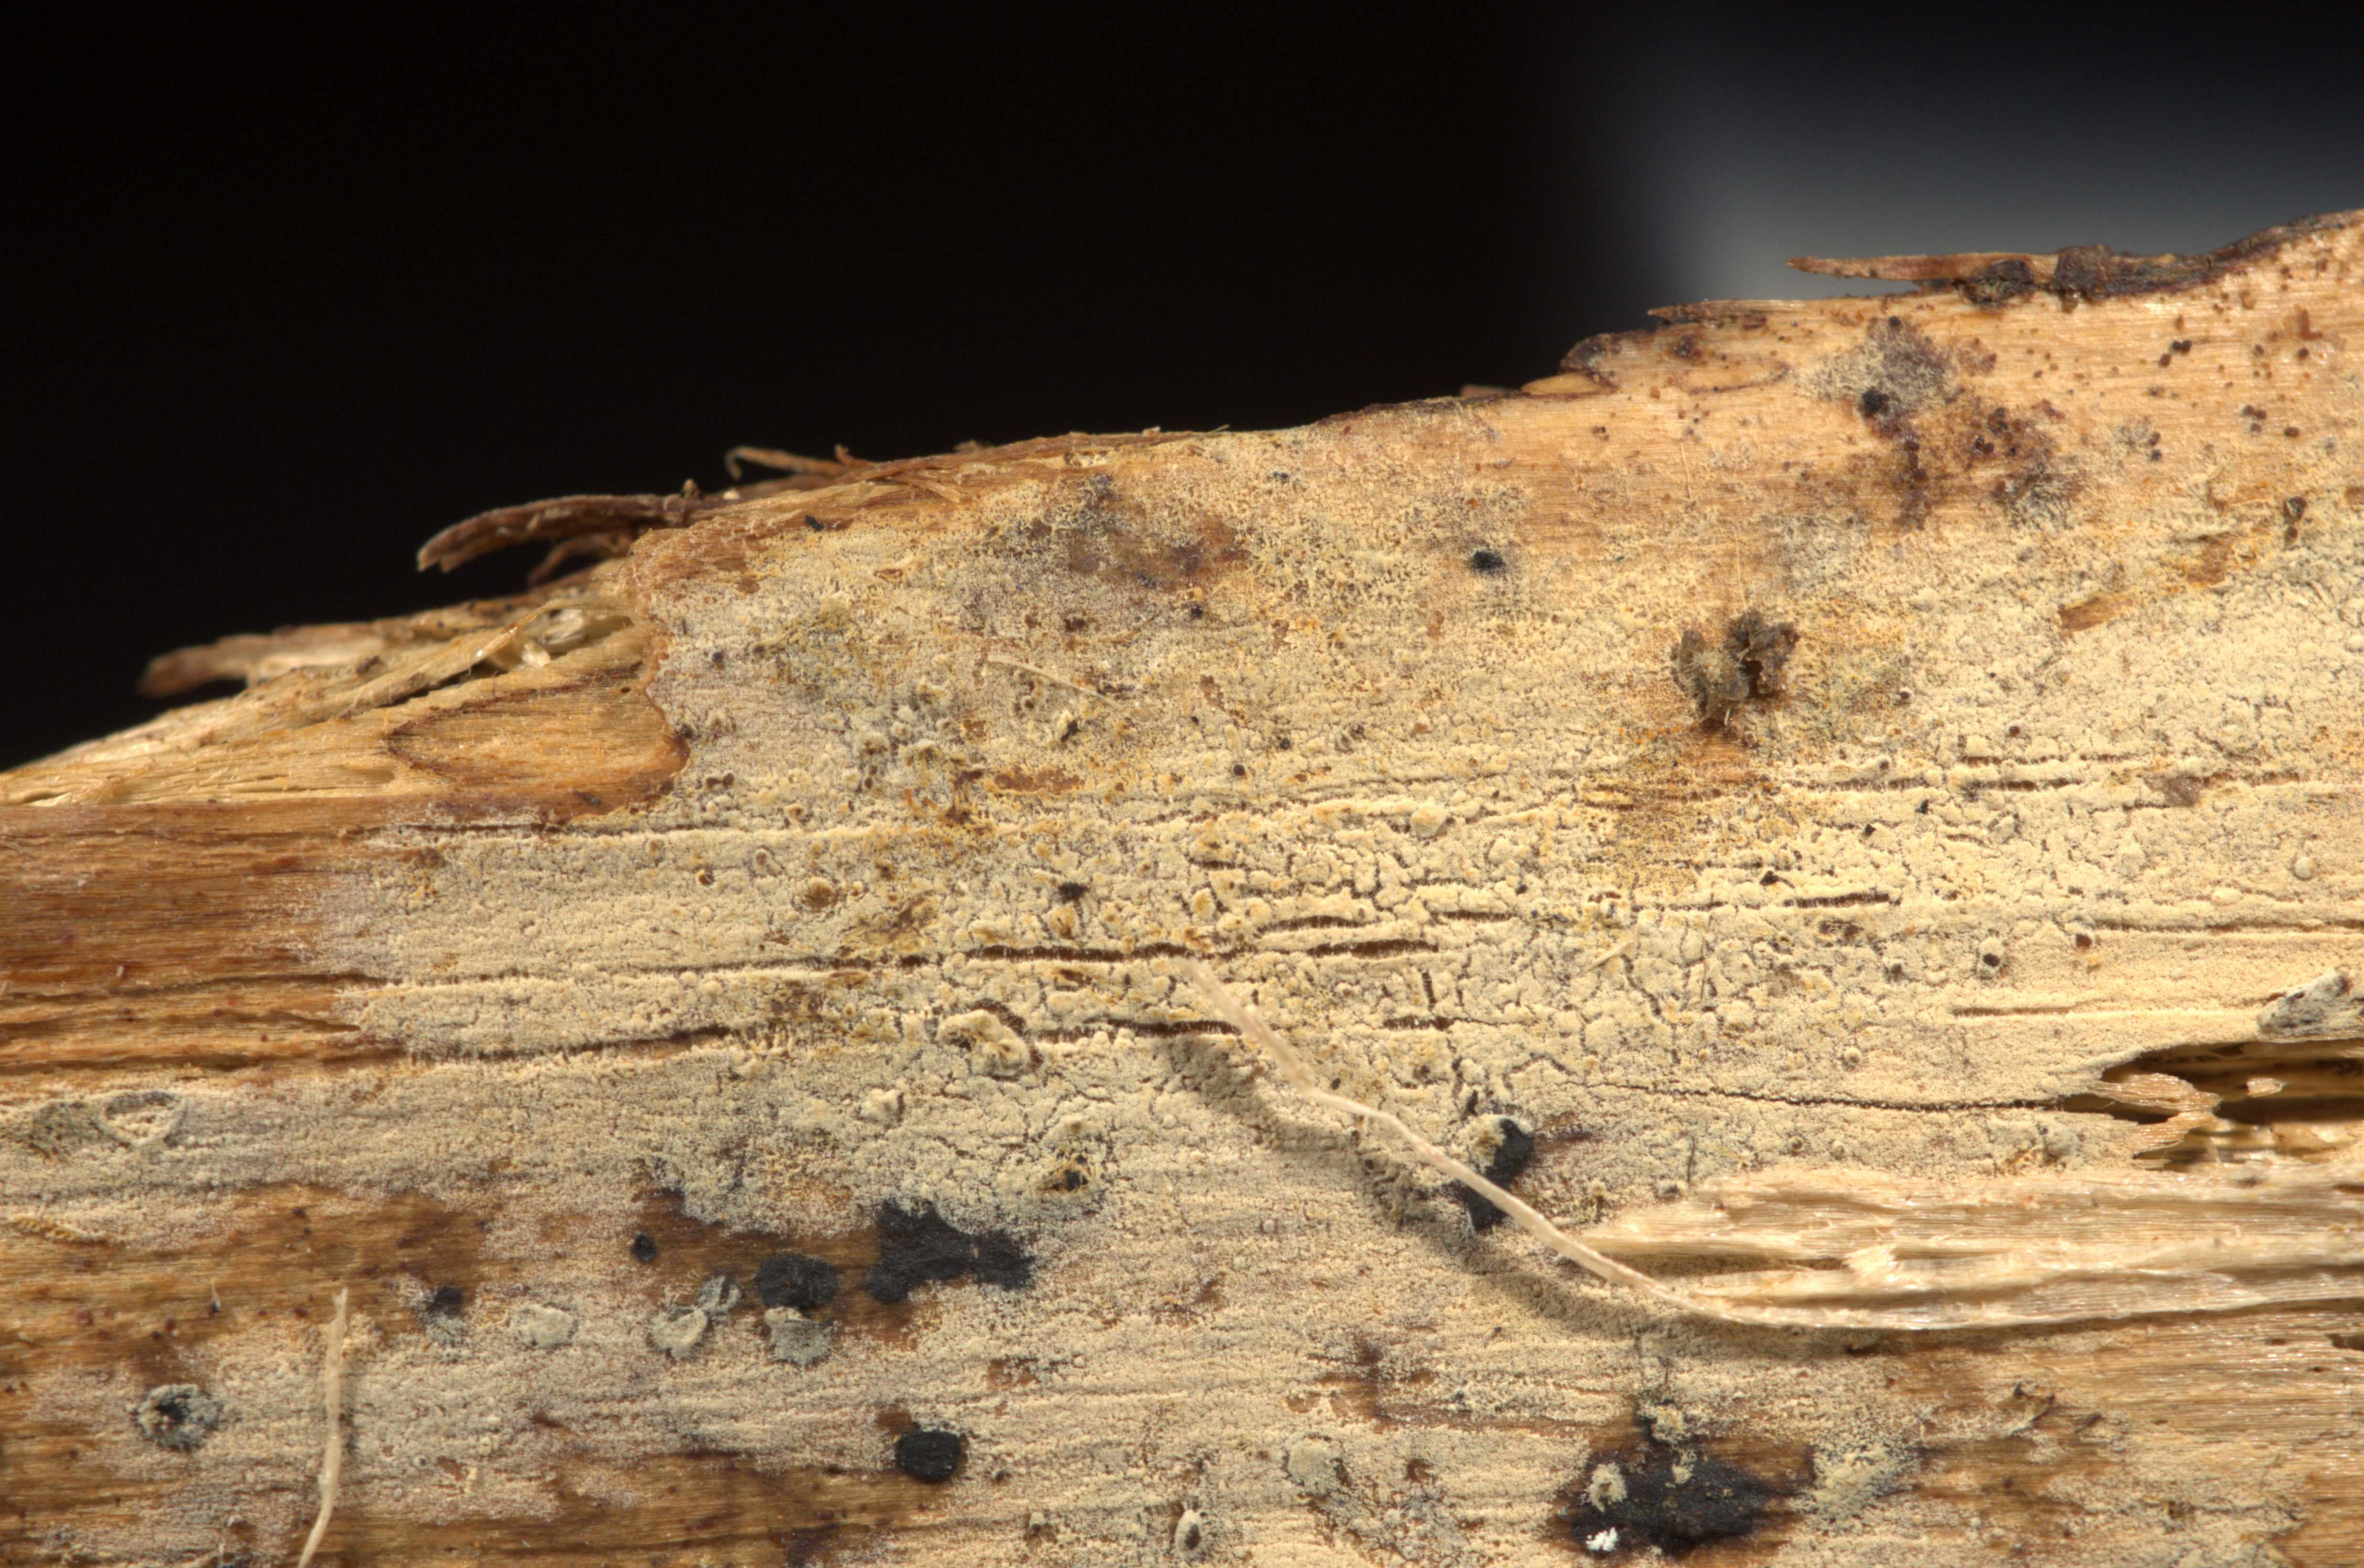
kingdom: Fungi
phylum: Basidiomycota
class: Agaricomycetes
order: Hymenochaetales
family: Hyphodontiaceae
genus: Hyphodontia
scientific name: Hyphodontia pallidula
